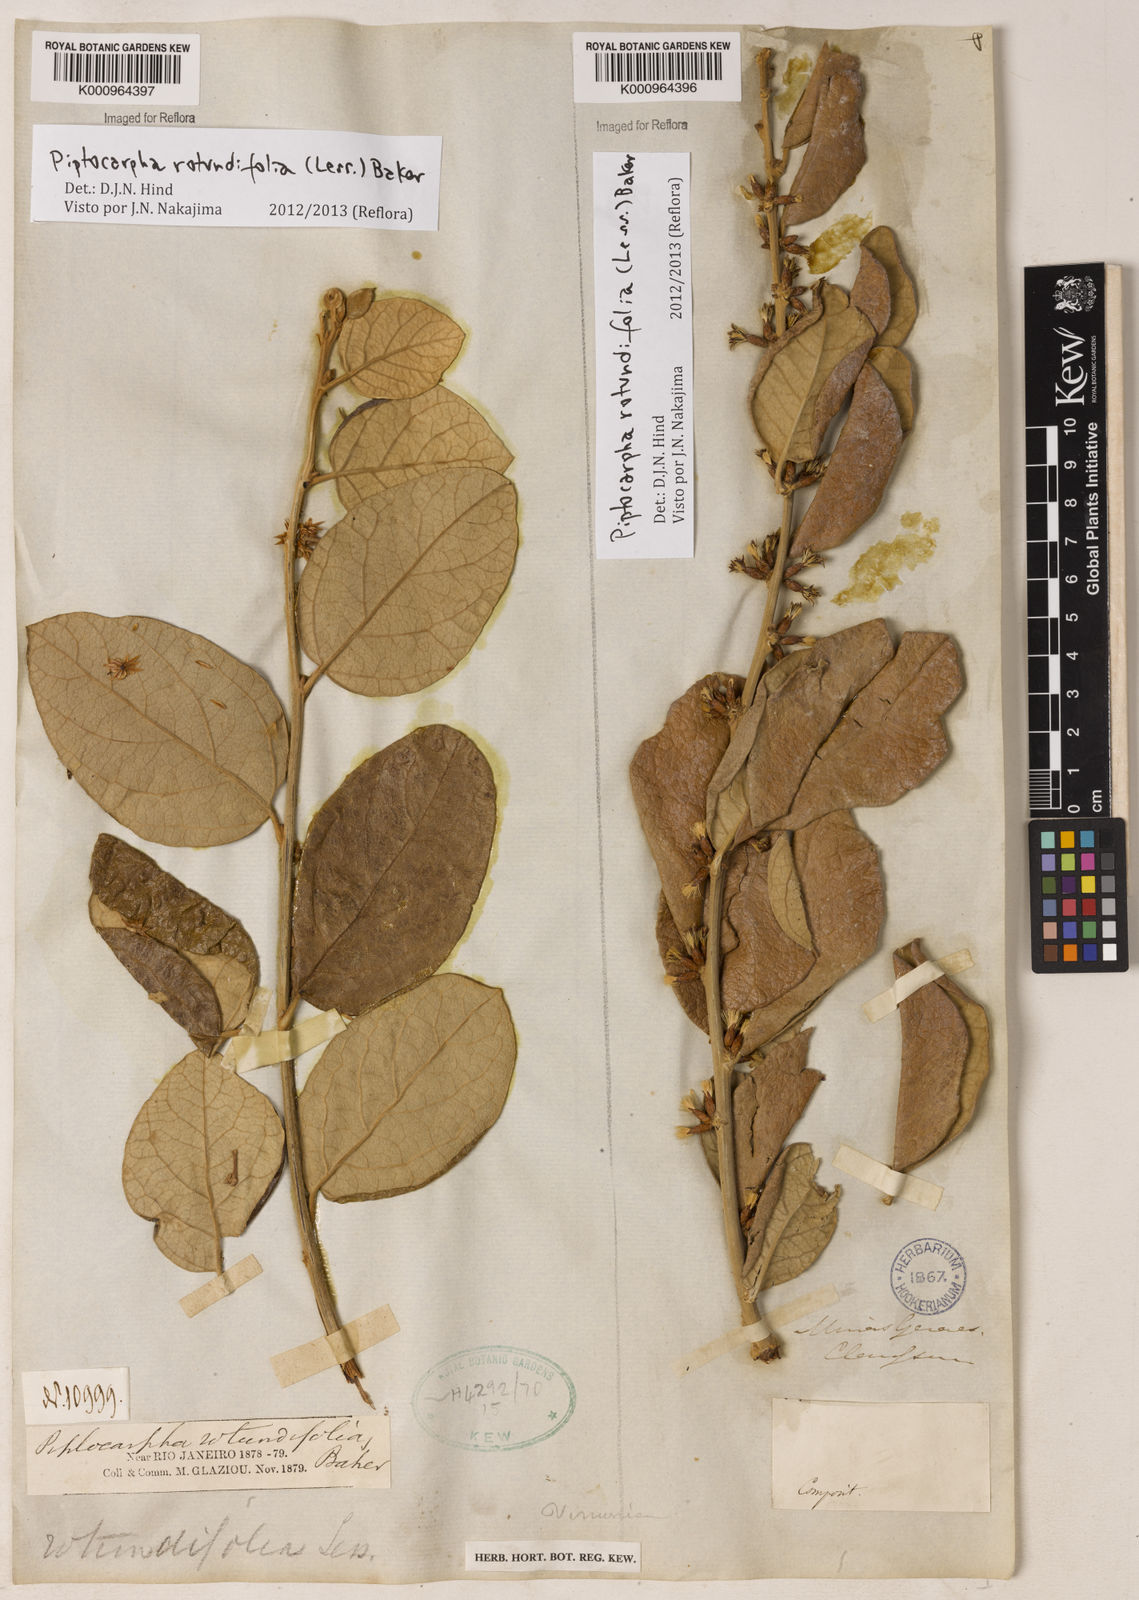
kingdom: Plantae
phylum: Tracheophyta
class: Magnoliopsida
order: Asterales
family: Asteraceae
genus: Piptocarpha
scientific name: Piptocarpha rotundifolia
